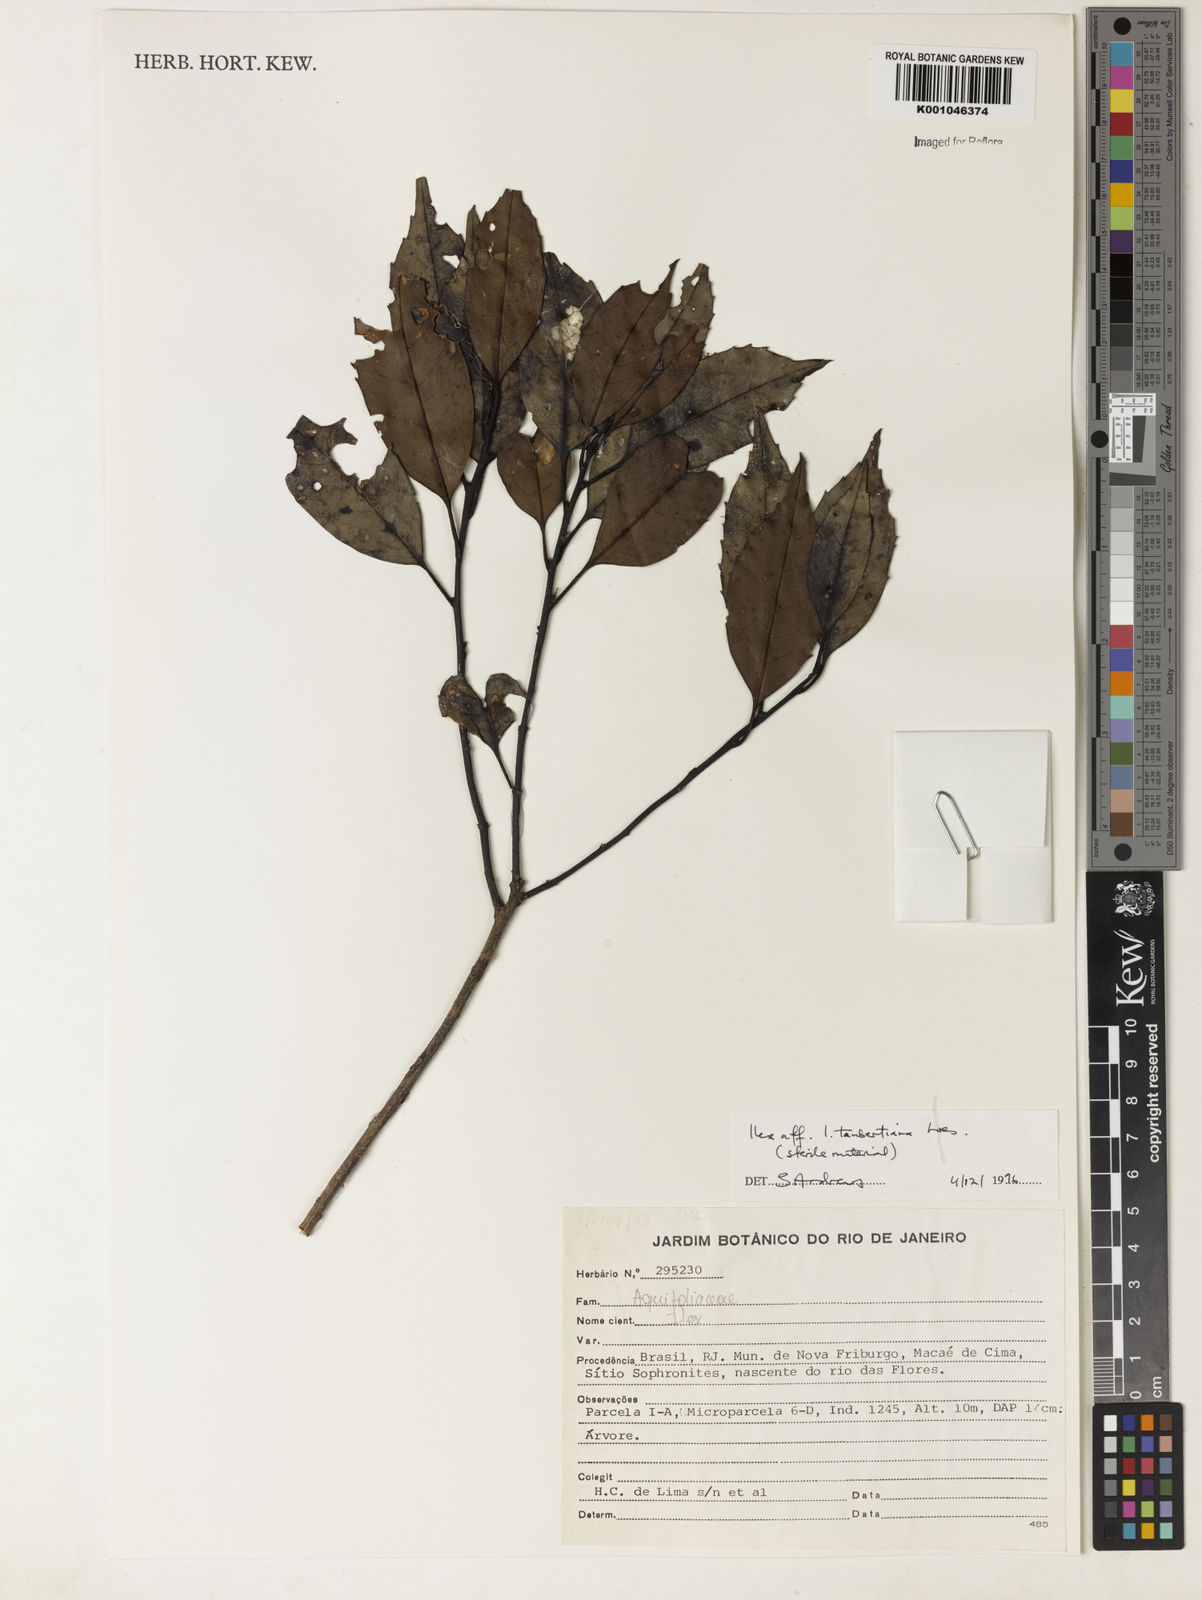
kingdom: Plantae
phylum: Tracheophyta
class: Magnoliopsida
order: Aquifoliales
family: Aquifoliaceae
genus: Ilex
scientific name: Ilex taubertiana
